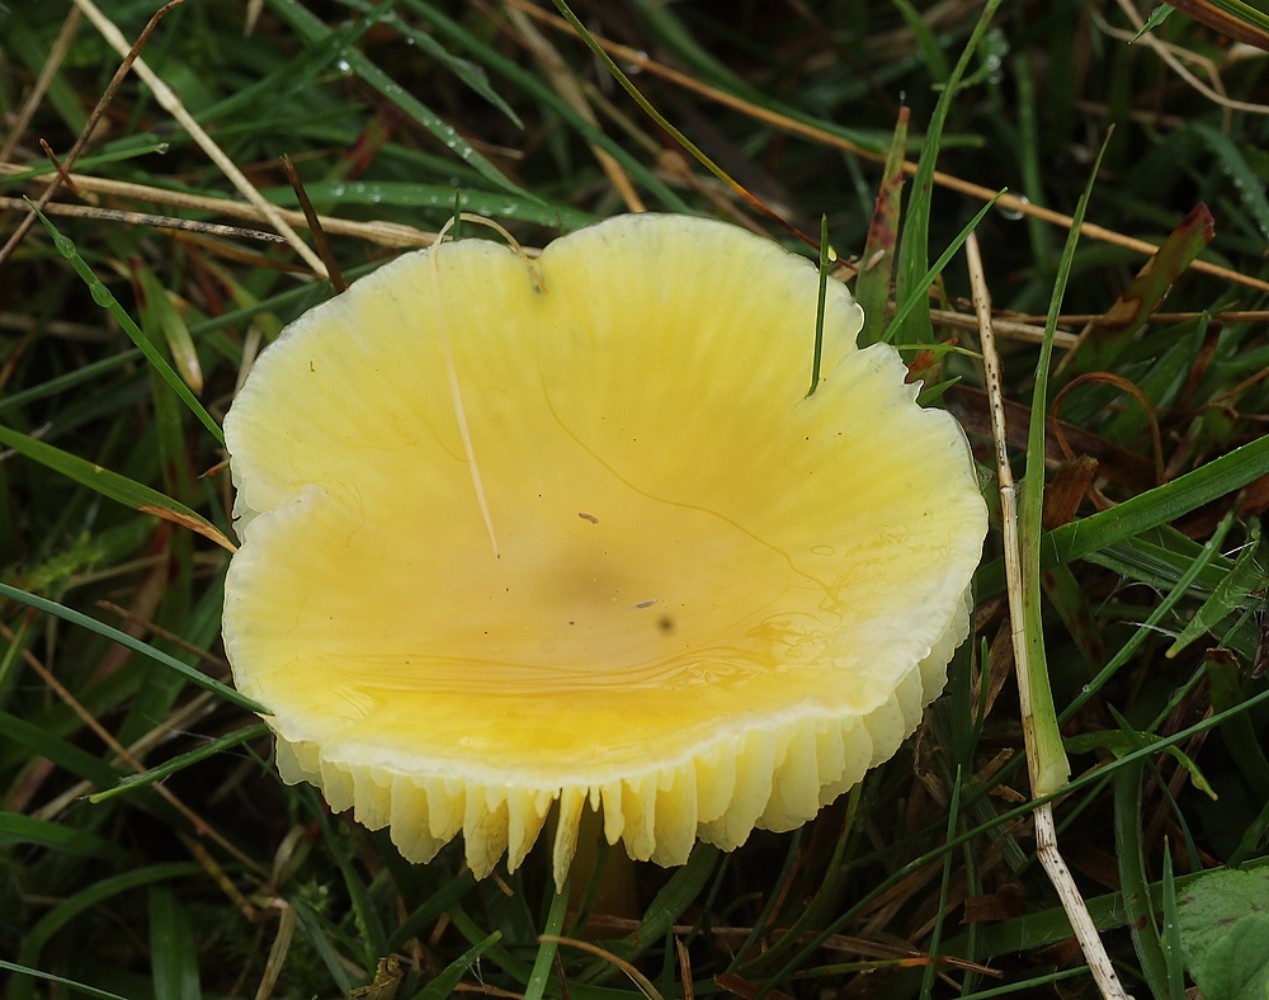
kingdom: Fungi
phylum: Basidiomycota
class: Agaricomycetes
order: Agaricales
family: Hygrophoraceae
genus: Hygrocybe
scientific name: Hygrocybe chlorophana
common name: gul vokshat
